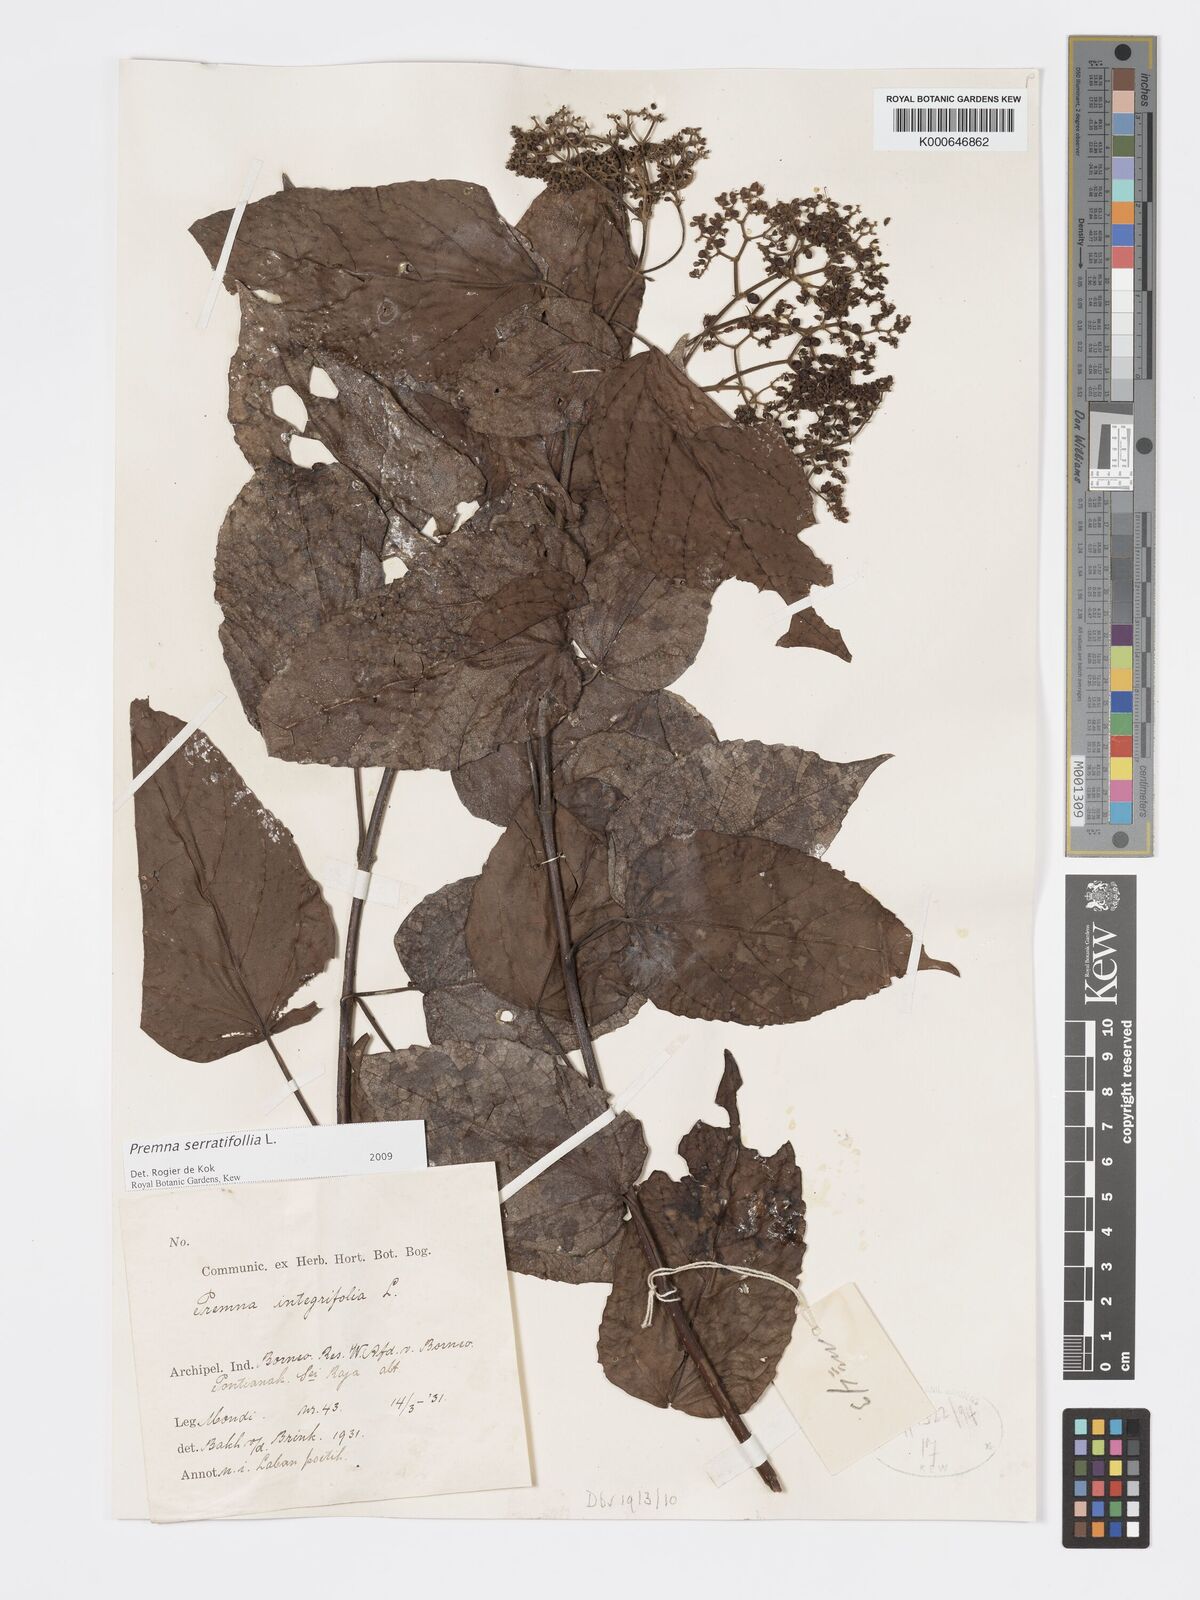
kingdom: Plantae
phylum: Tracheophyta
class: Magnoliopsida
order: Lamiales
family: Lamiaceae
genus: Premna
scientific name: Premna serratifolia
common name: Bastard guelder
